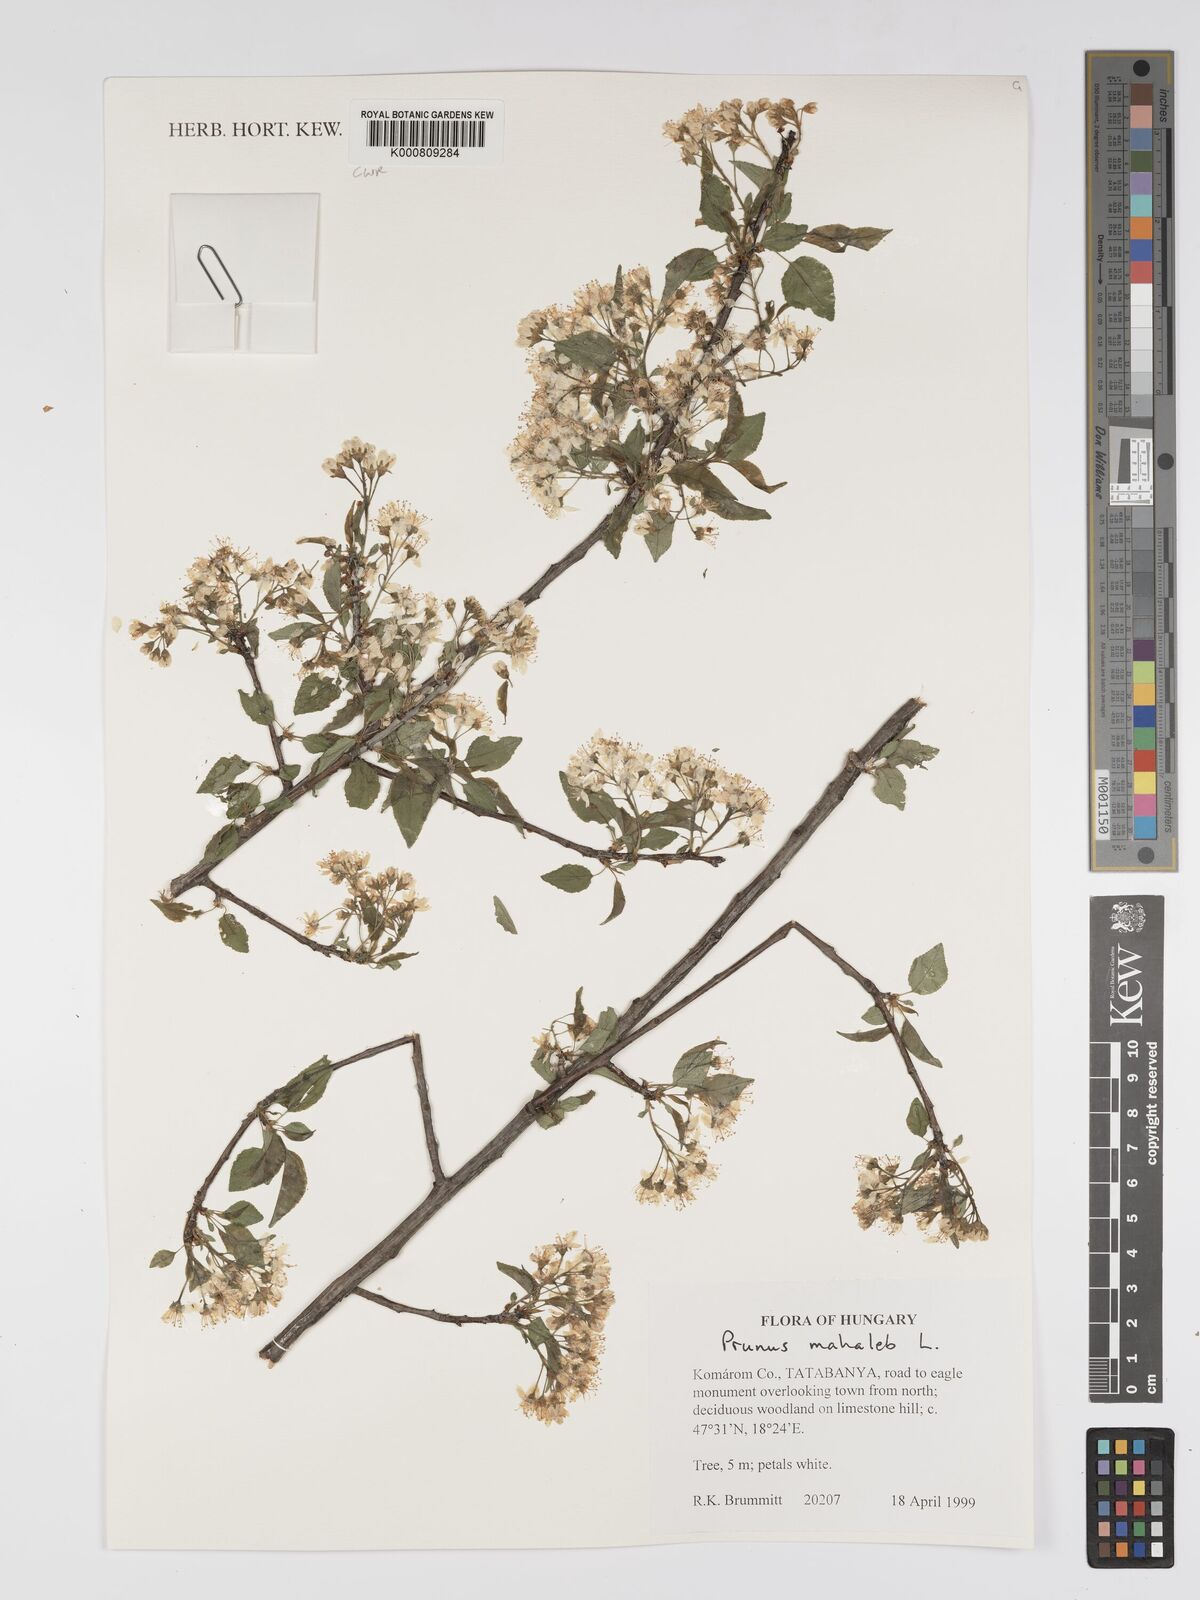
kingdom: Plantae
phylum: Tracheophyta
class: Magnoliopsida
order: Rosales
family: Rosaceae
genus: Prunus
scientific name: Prunus mahaleb
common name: Mahaleb cherry
